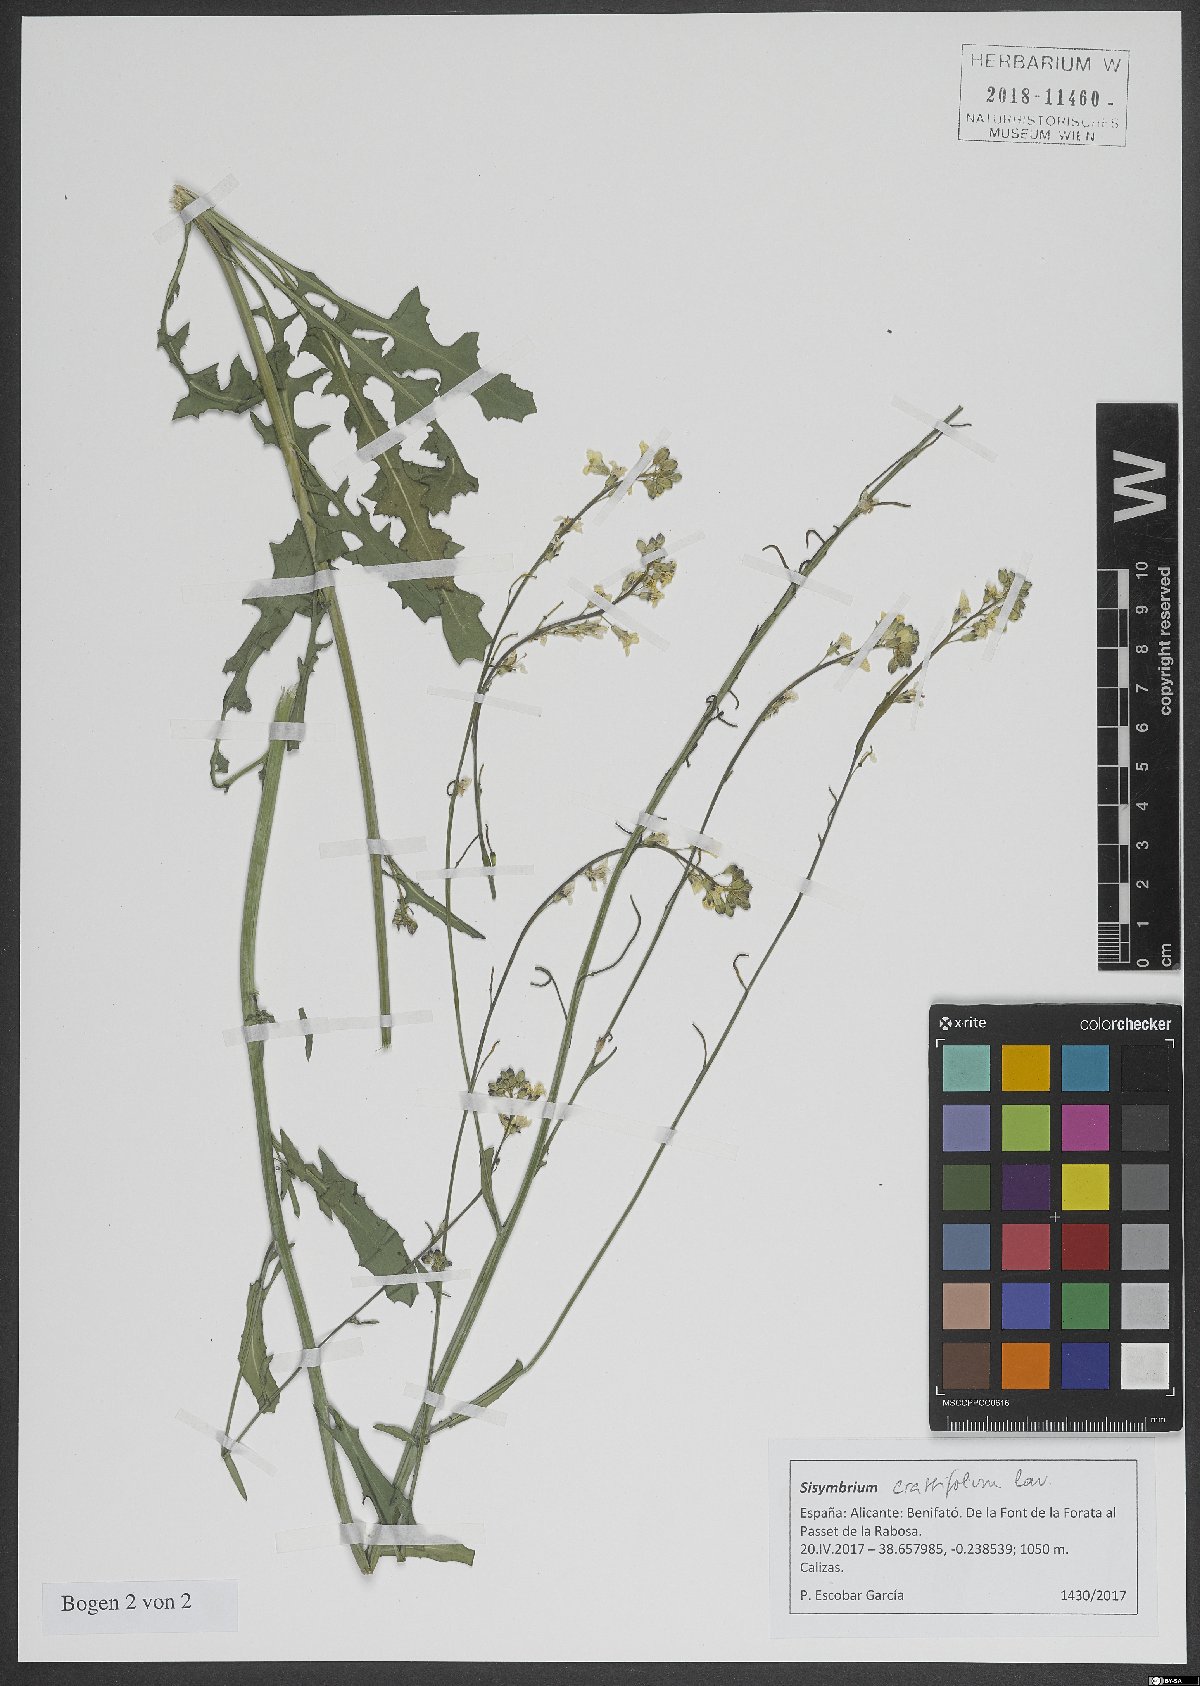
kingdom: Plantae
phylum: Tracheophyta
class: Magnoliopsida
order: Brassicales
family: Brassicaceae
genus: Sisymbrium
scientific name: Sisymbrium crassifolium
